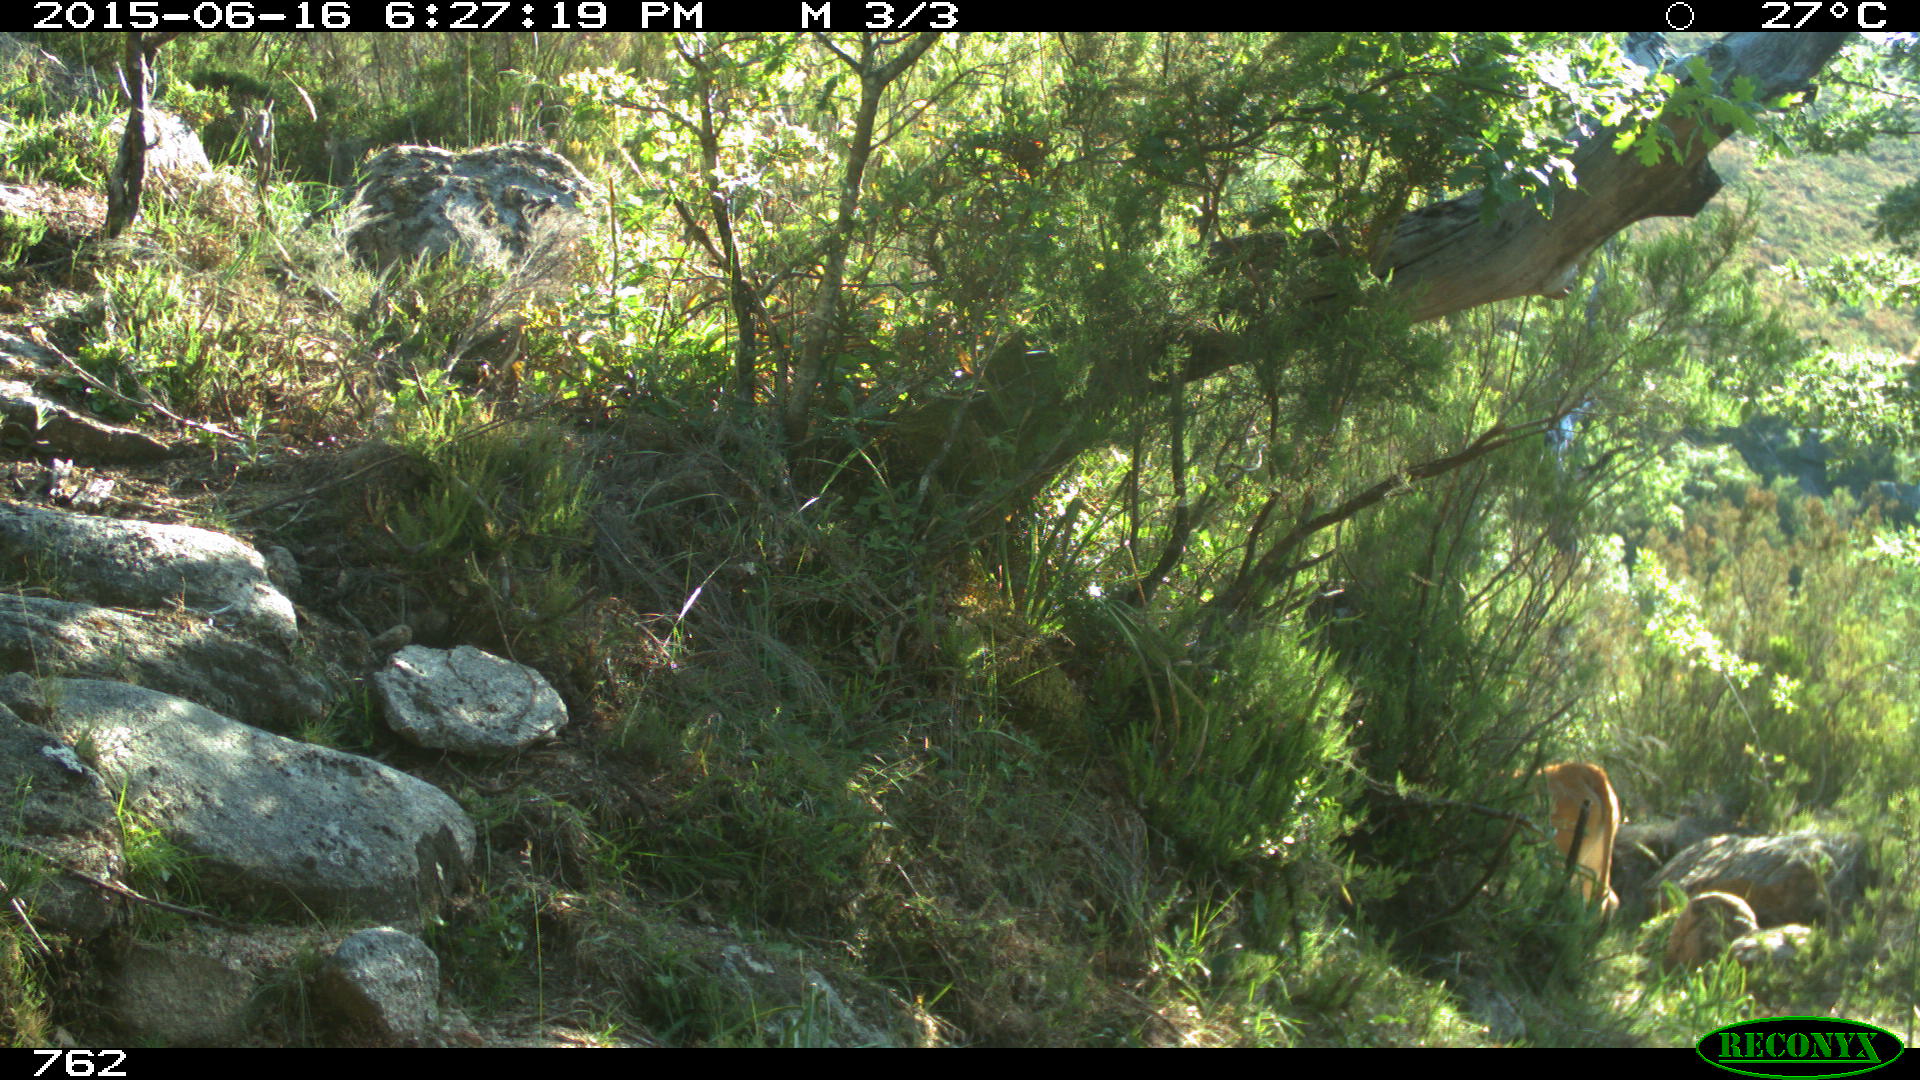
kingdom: Animalia
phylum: Chordata
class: Mammalia
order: Artiodactyla
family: Bovidae
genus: Bos
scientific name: Bos taurus
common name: Domesticated cattle
